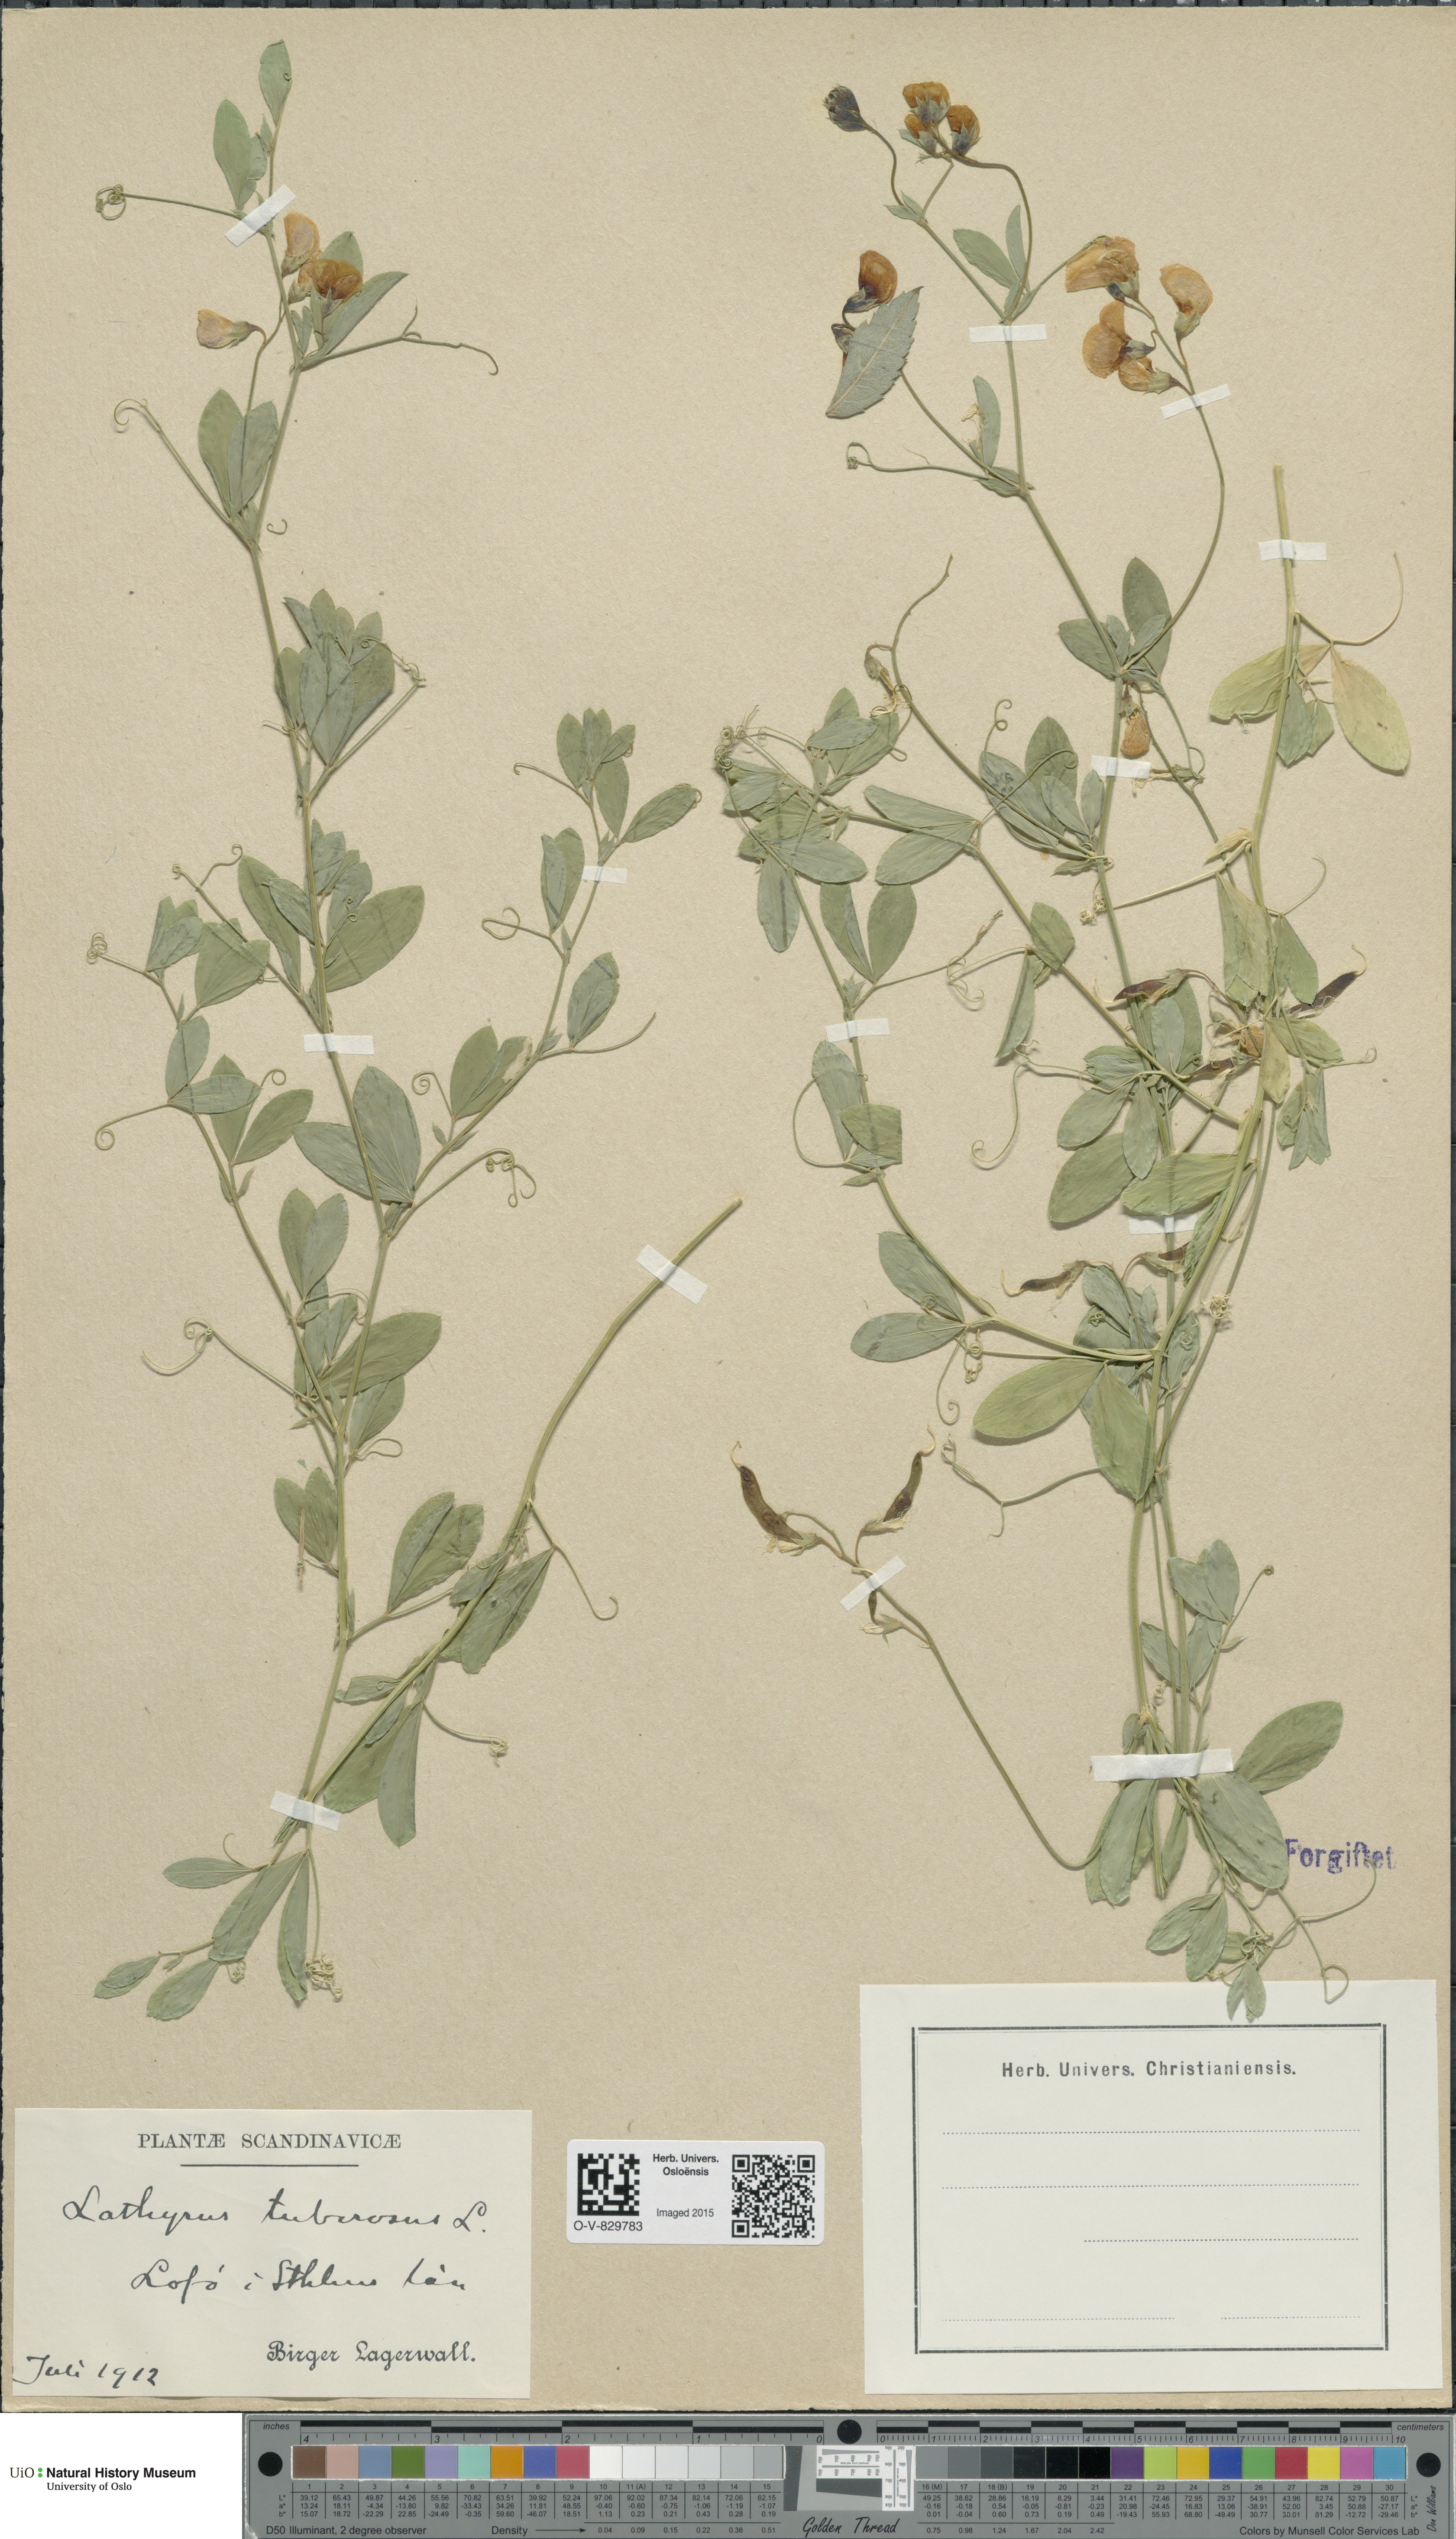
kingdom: Plantae
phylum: Tracheophyta
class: Magnoliopsida
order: Fabales
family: Fabaceae
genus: Lathyrus
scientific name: Lathyrus tuberosus
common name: Tuberous pea
